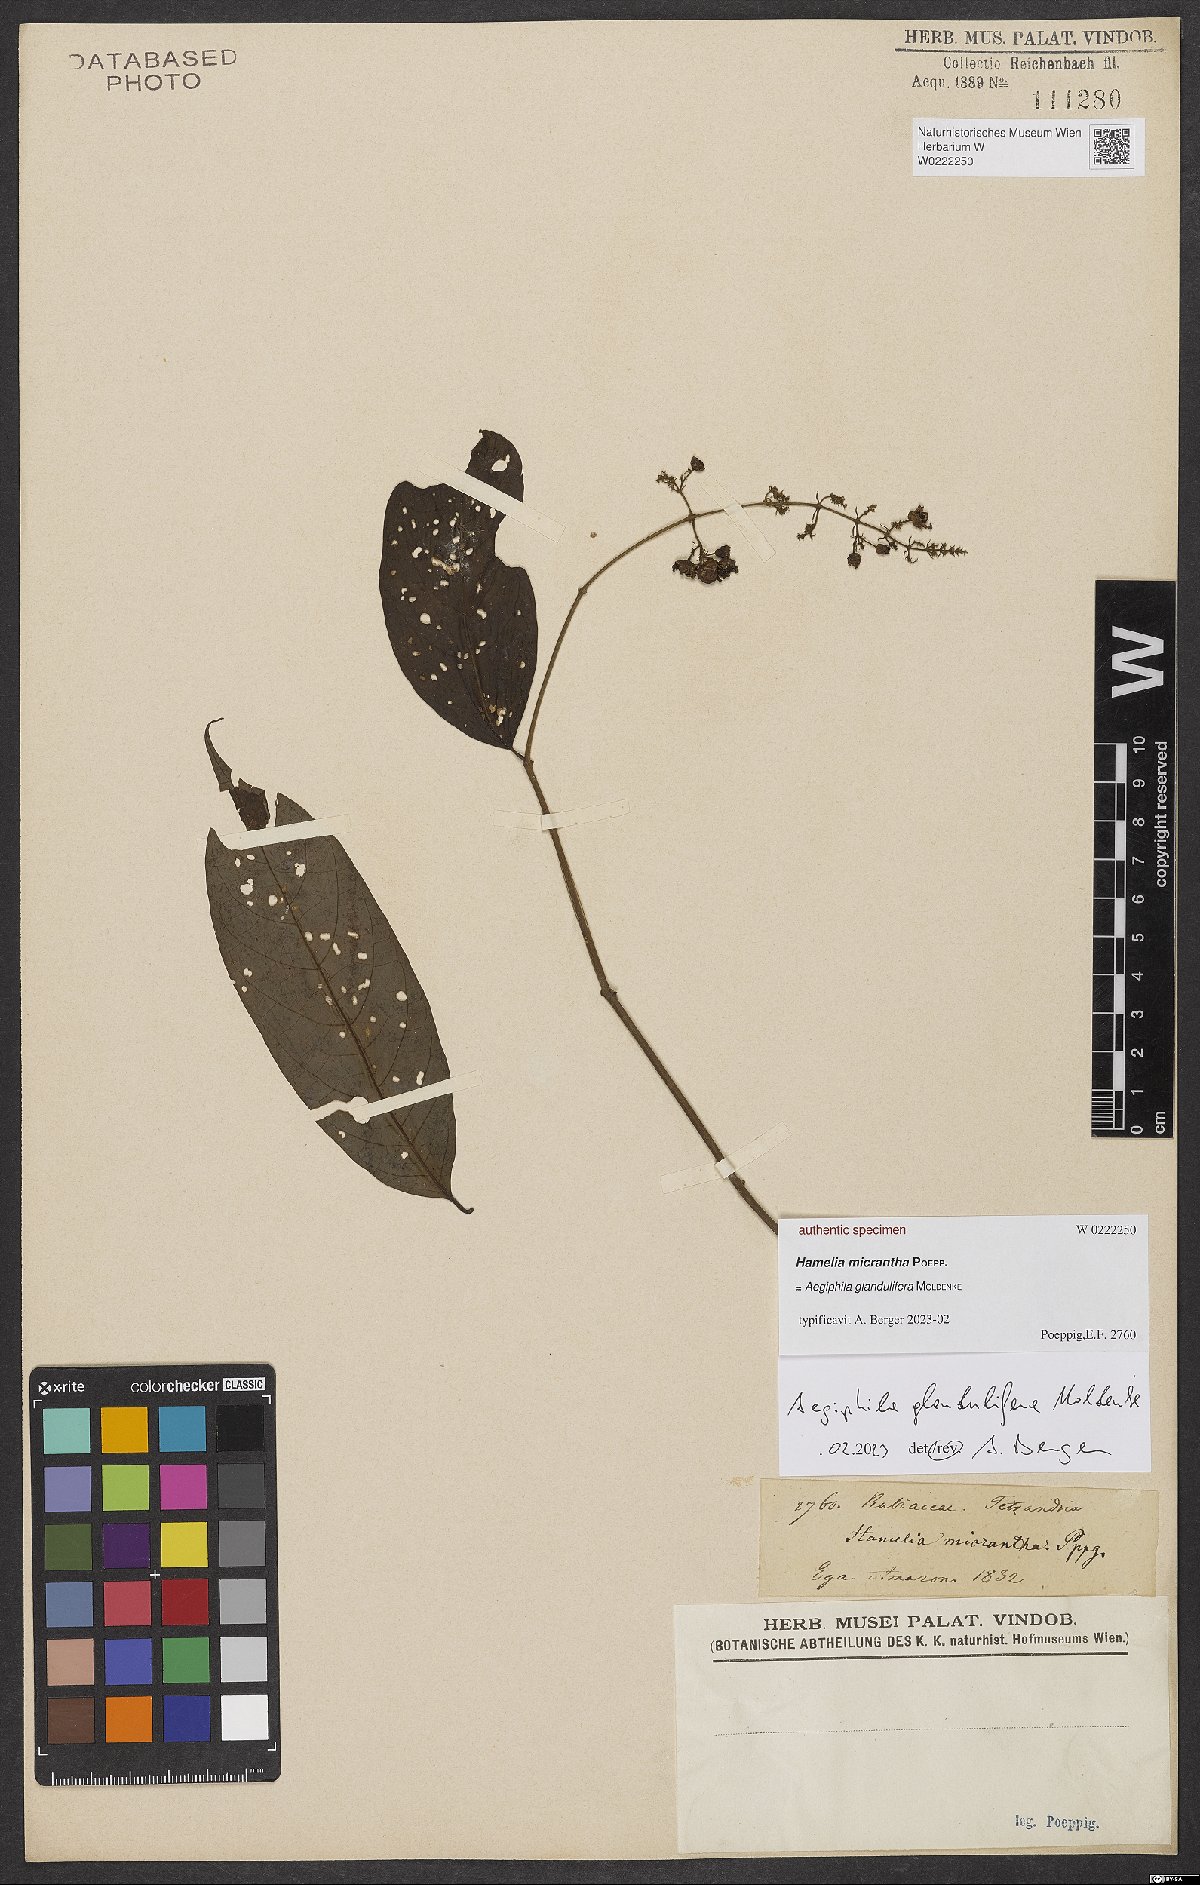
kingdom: Plantae
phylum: Tracheophyta
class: Magnoliopsida
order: Gentianales
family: Rubiaceae
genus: Hamelia
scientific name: Hamelia micrantha
